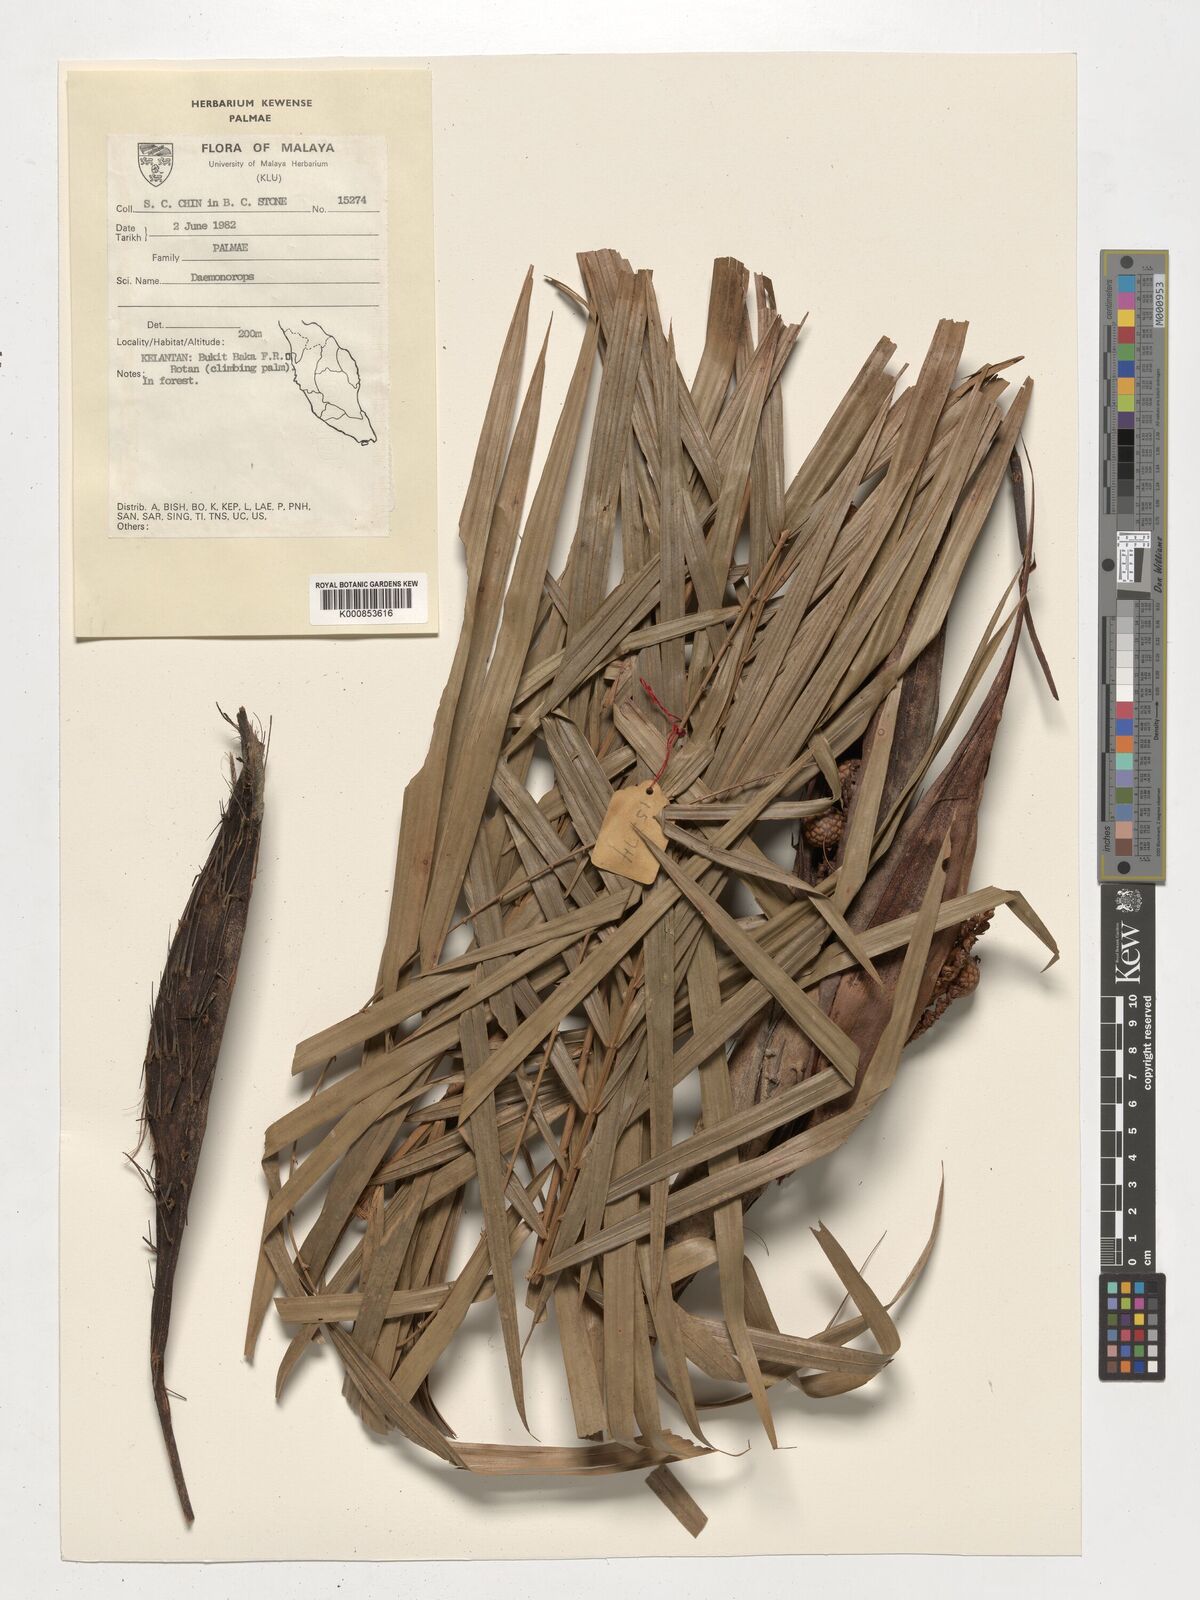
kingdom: Plantae
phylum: Tracheophyta
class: Liliopsida
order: Arecales
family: Arecaceae
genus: Daemonorops
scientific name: Daemonorops
